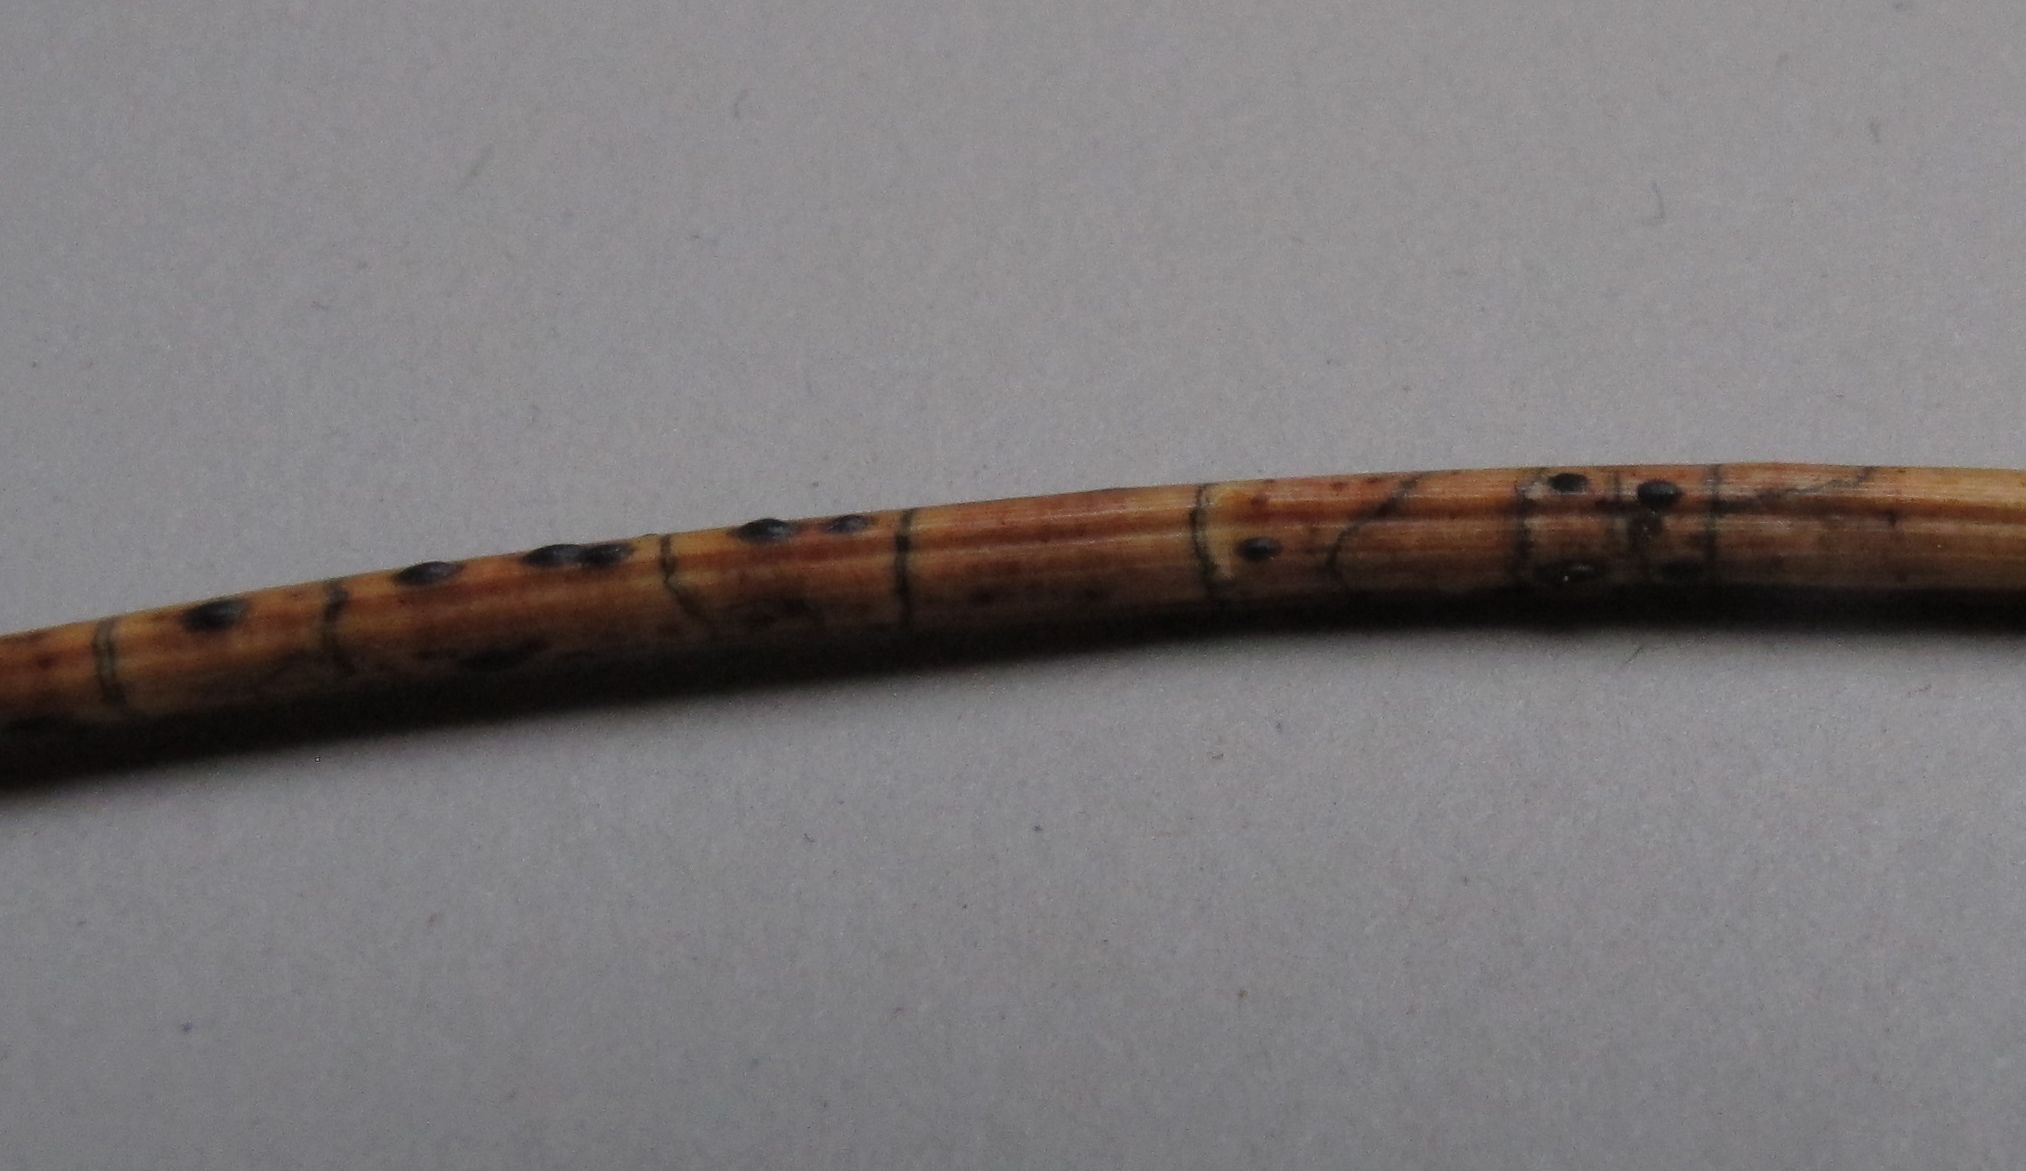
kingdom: Fungi
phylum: Ascomycota
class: Leotiomycetes
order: Rhytismatales
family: Rhytismataceae
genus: Lophodermium
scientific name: Lophodermium pinastri
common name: fyrre-fureplet
